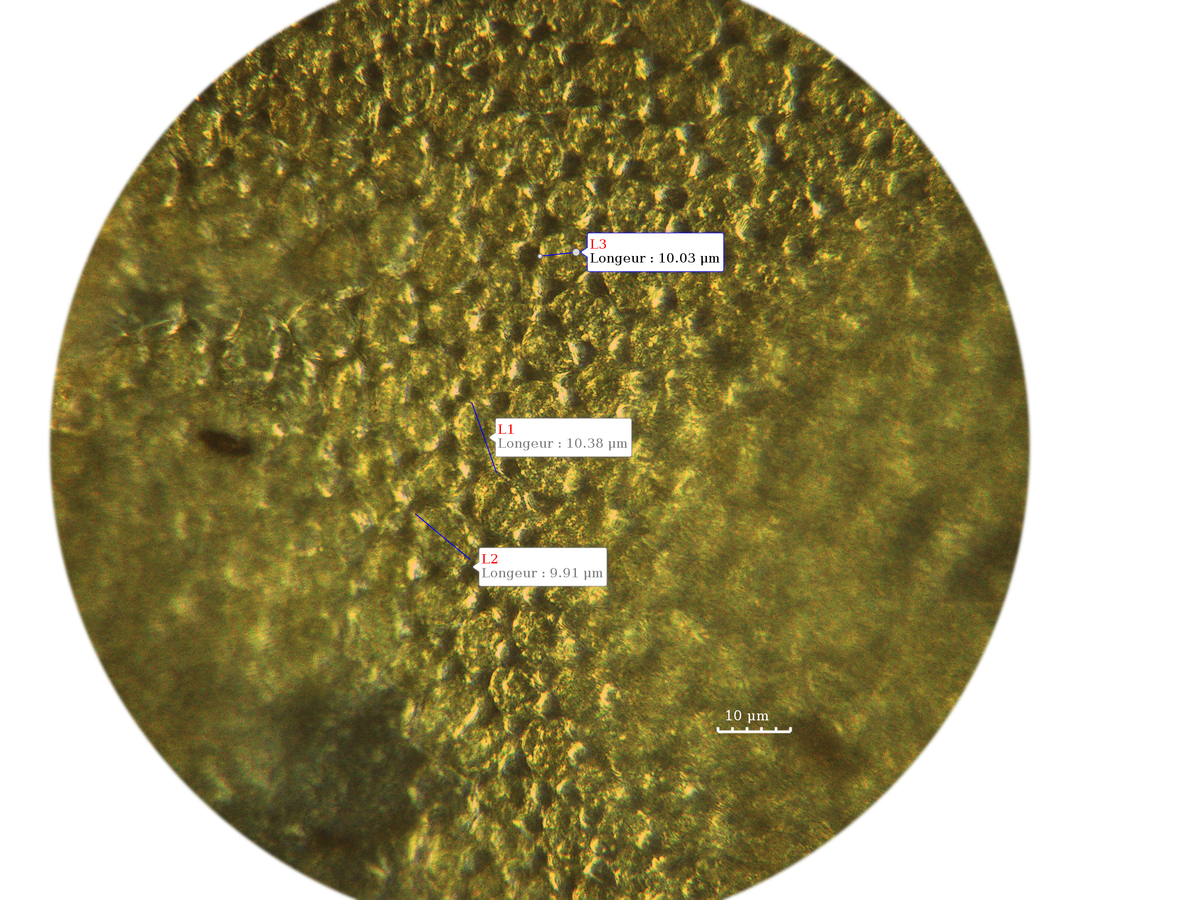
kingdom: Plantae
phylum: Marchantiophyta
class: Jungermanniopsida
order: Jungermanniales
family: Plagiochilaceae
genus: Plagiochila
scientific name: Plagiochila repanda
